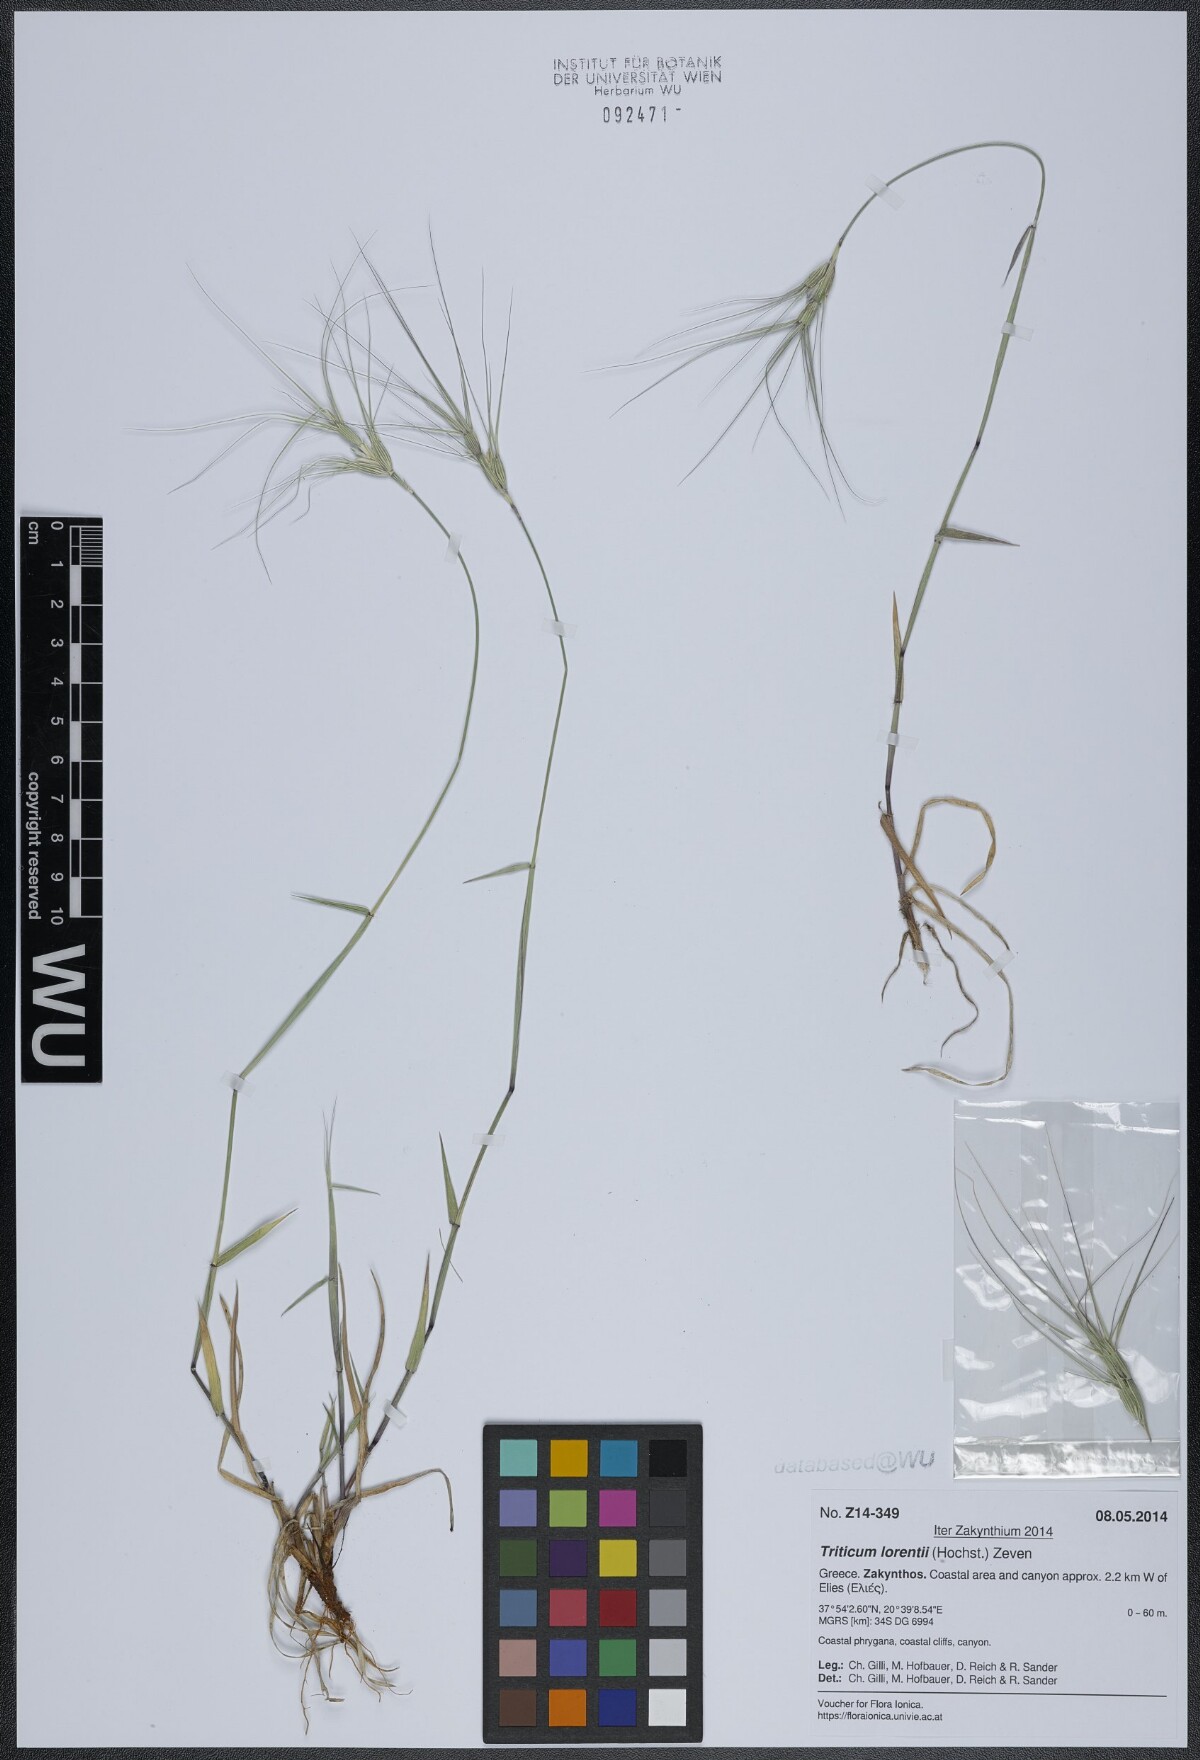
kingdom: Plantae
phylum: Tracheophyta
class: Liliopsida
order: Poales
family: Poaceae
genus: Aegilops
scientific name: Aegilops biuncialis
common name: Mediterranean aegilops
